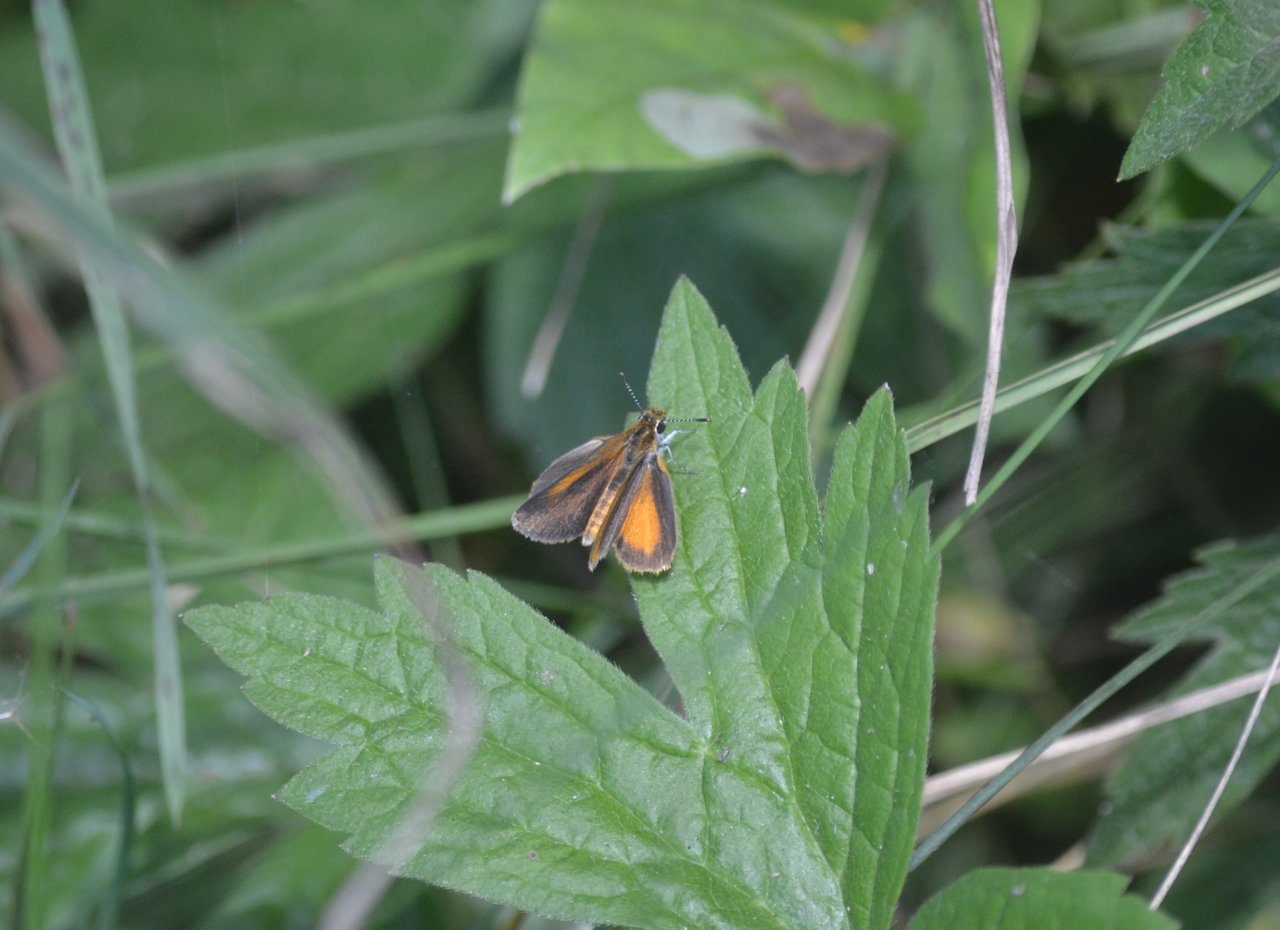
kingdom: Animalia
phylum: Arthropoda
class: Insecta
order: Lepidoptera
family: Hesperiidae
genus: Ancyloxypha
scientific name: Ancyloxypha numitor
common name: Least Skipper
